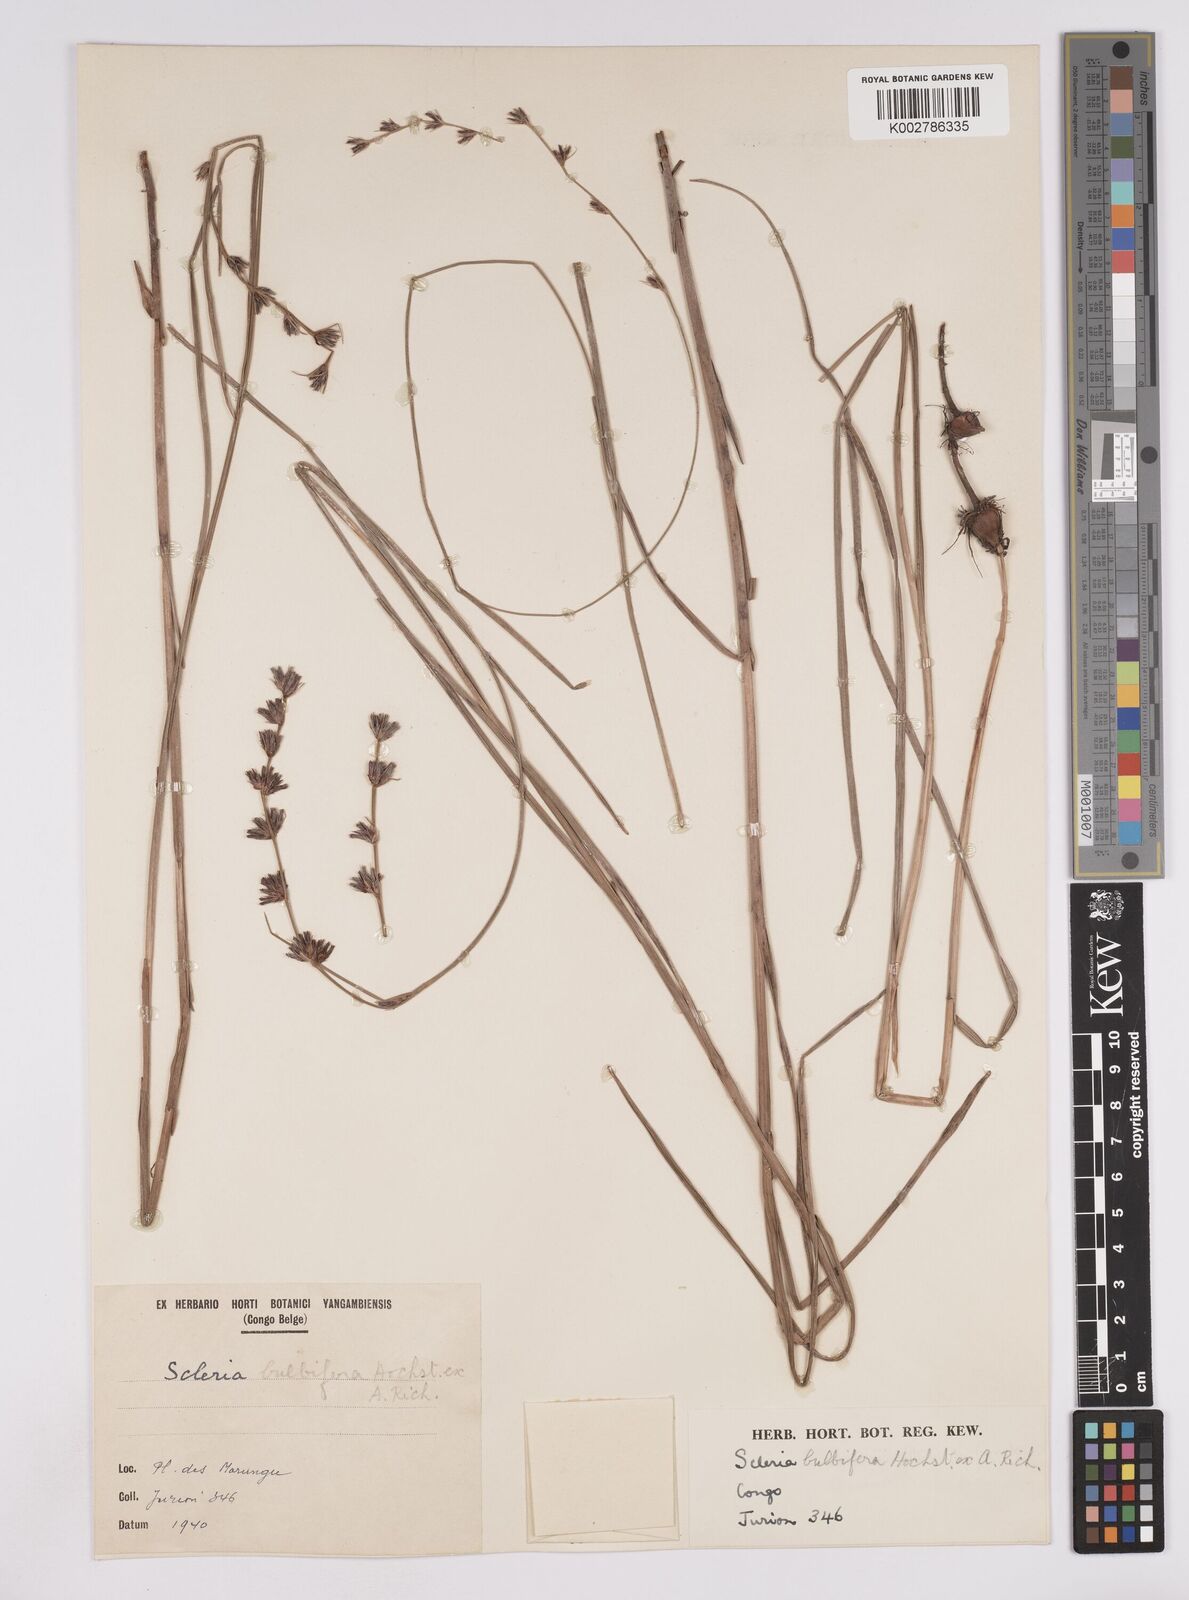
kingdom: Plantae
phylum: Tracheophyta
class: Liliopsida
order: Poales
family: Cyperaceae
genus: Scleria
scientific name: Scleria bulbifera
